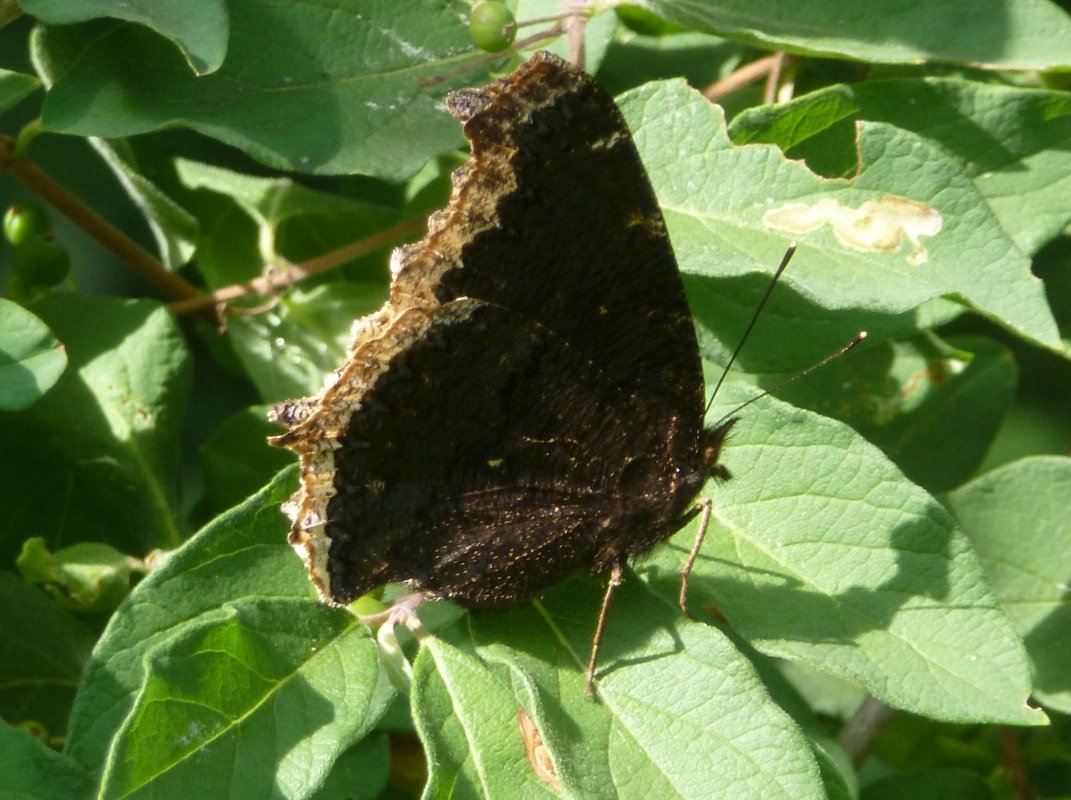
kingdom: Animalia
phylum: Arthropoda
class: Insecta
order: Lepidoptera
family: Nymphalidae
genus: Nymphalis
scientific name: Nymphalis antiopa
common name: Mourning Cloak
